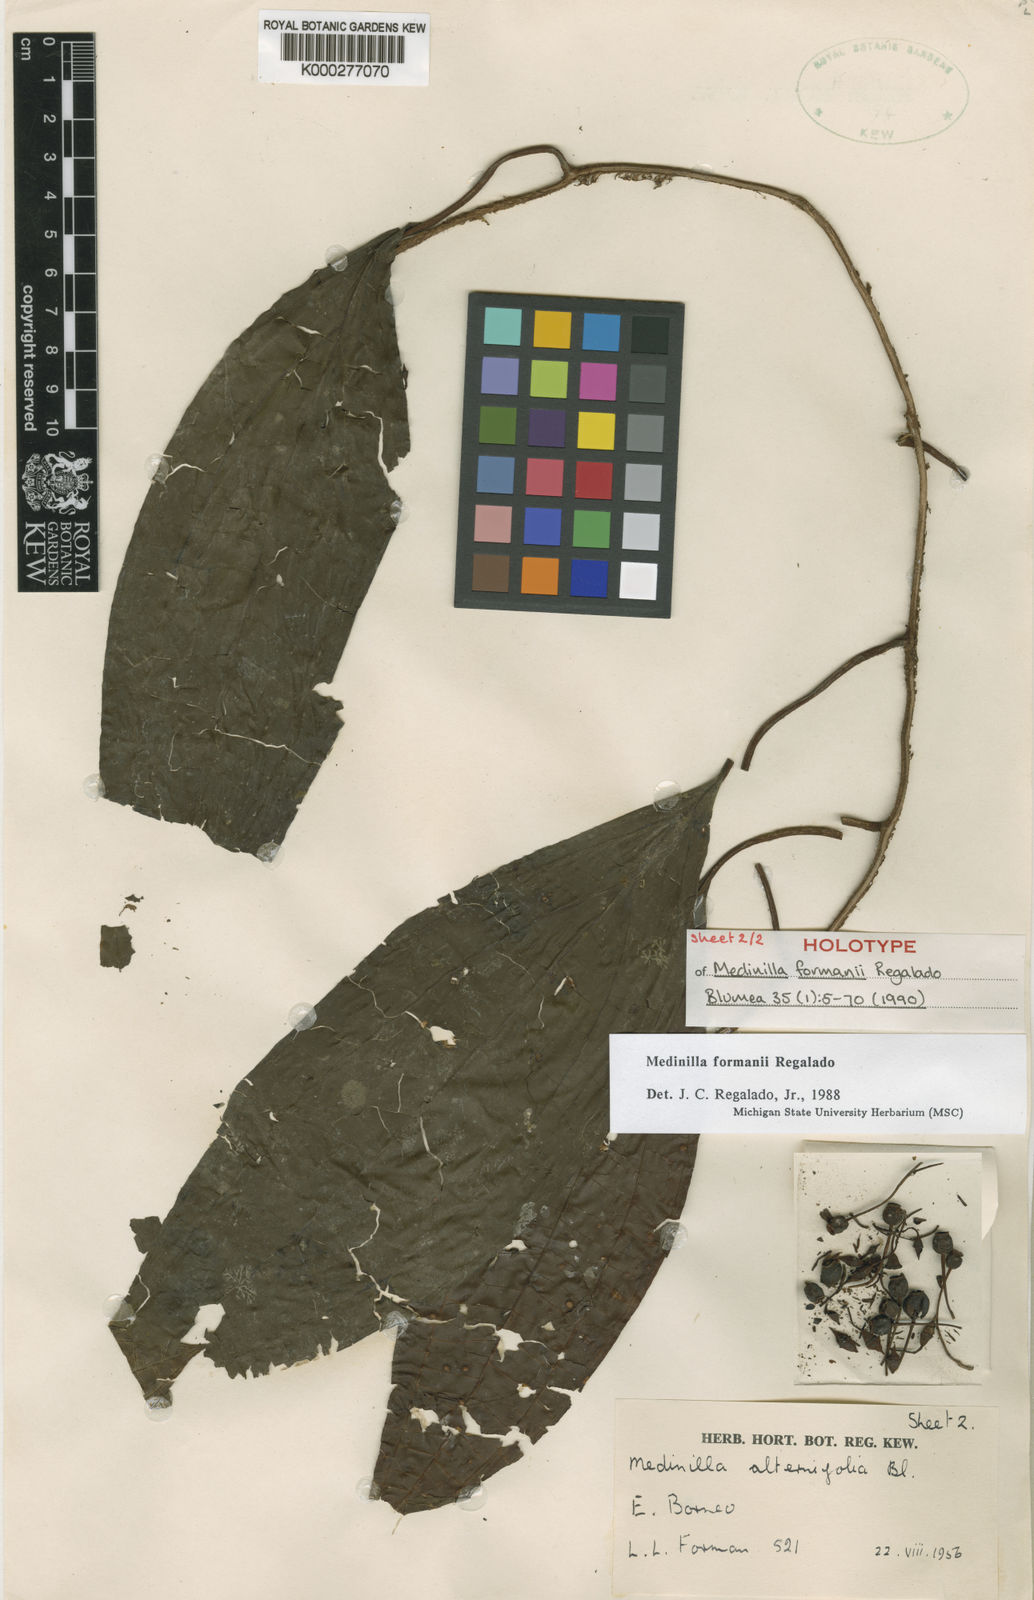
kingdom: Plantae
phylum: Tracheophyta
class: Magnoliopsida
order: Myrtales
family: Melastomataceae
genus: Heteroblemma
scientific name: Heteroblemma formanii
